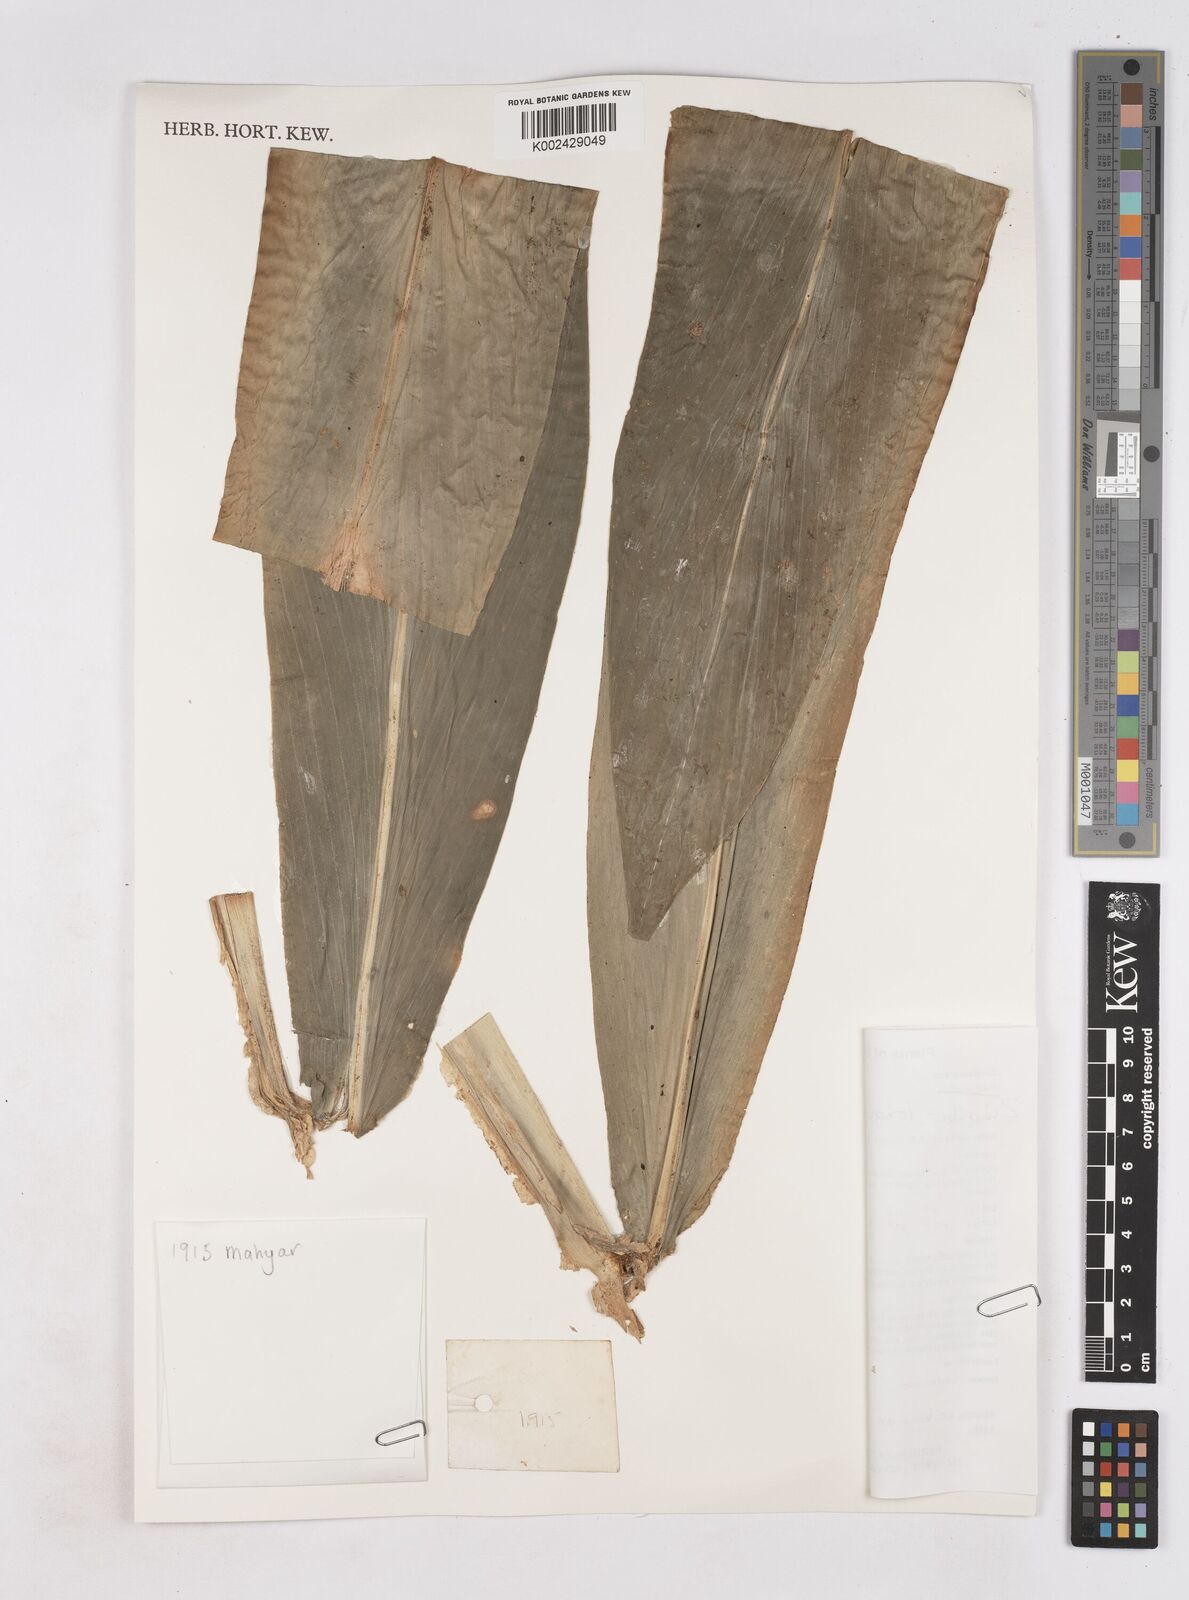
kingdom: Plantae
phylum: Tracheophyta
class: Liliopsida
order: Zingiberales
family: Zingiberaceae
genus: Zingiber
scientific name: Zingiber longipedunculatum
